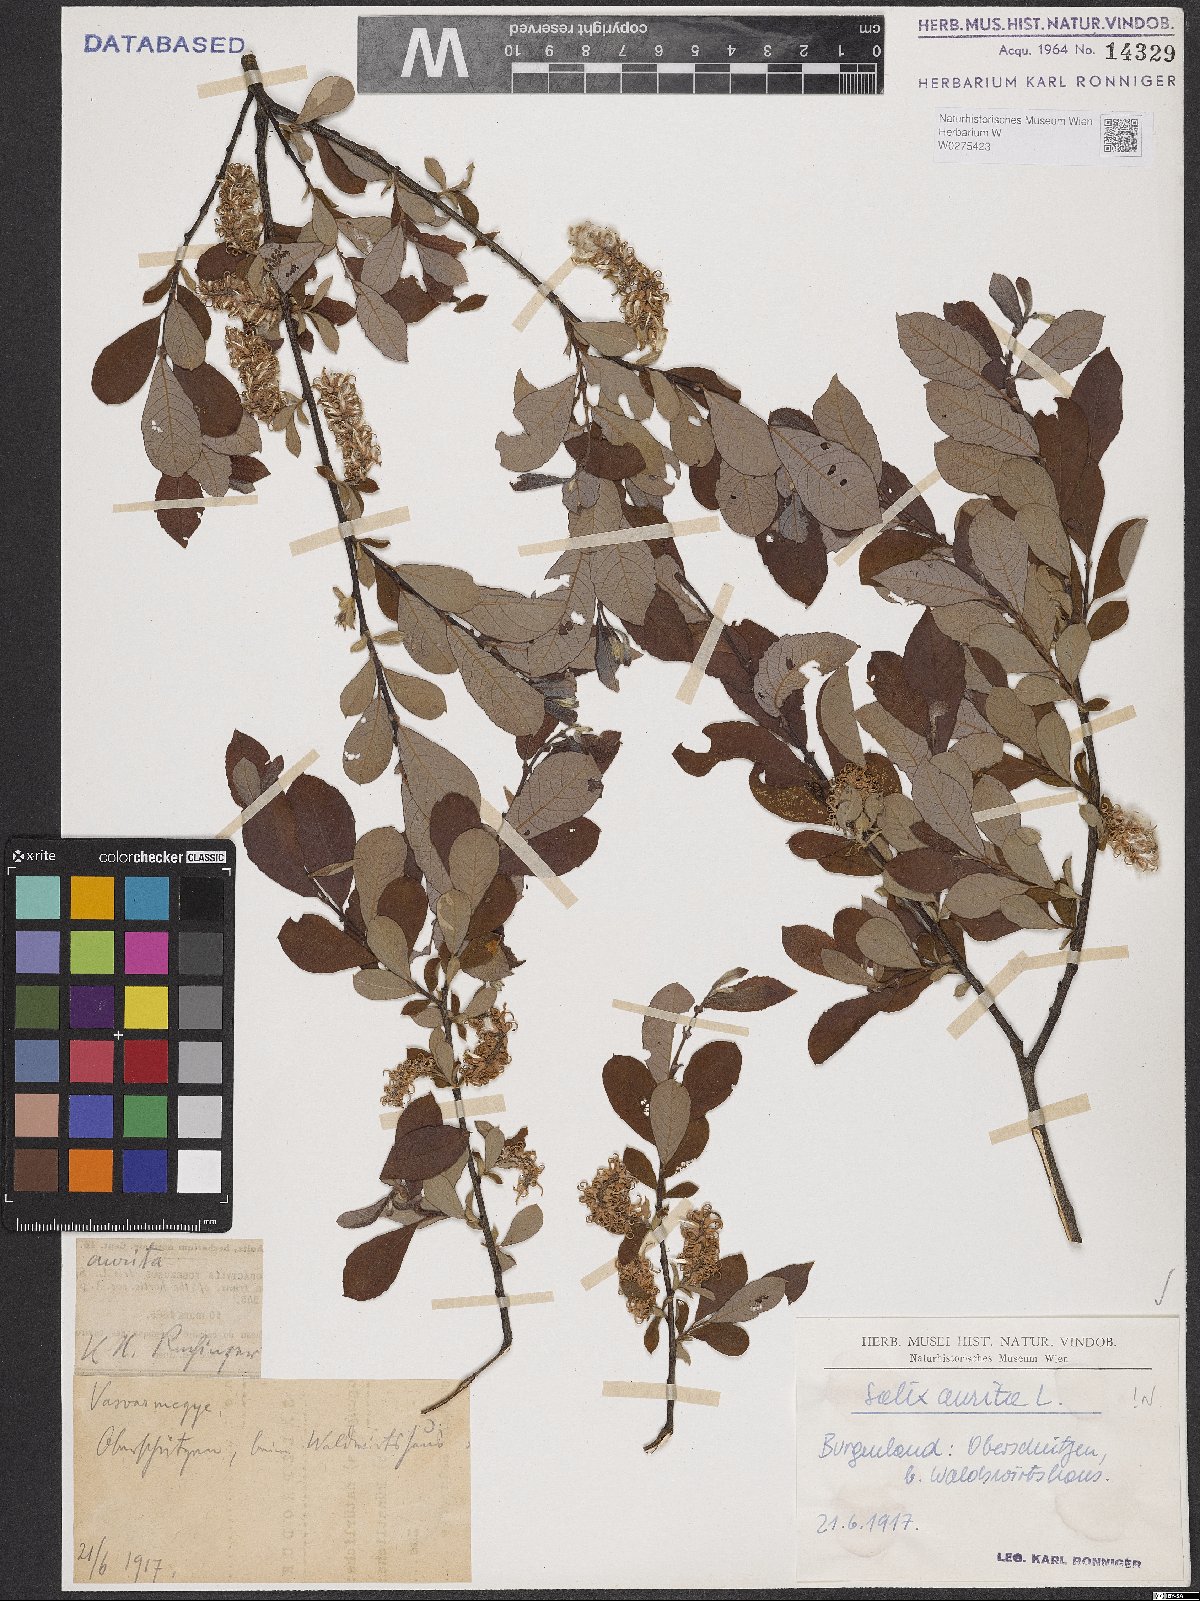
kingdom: Plantae
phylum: Tracheophyta
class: Magnoliopsida
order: Malpighiales
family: Salicaceae
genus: Salix
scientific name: Salix aurita
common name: Eared willow
